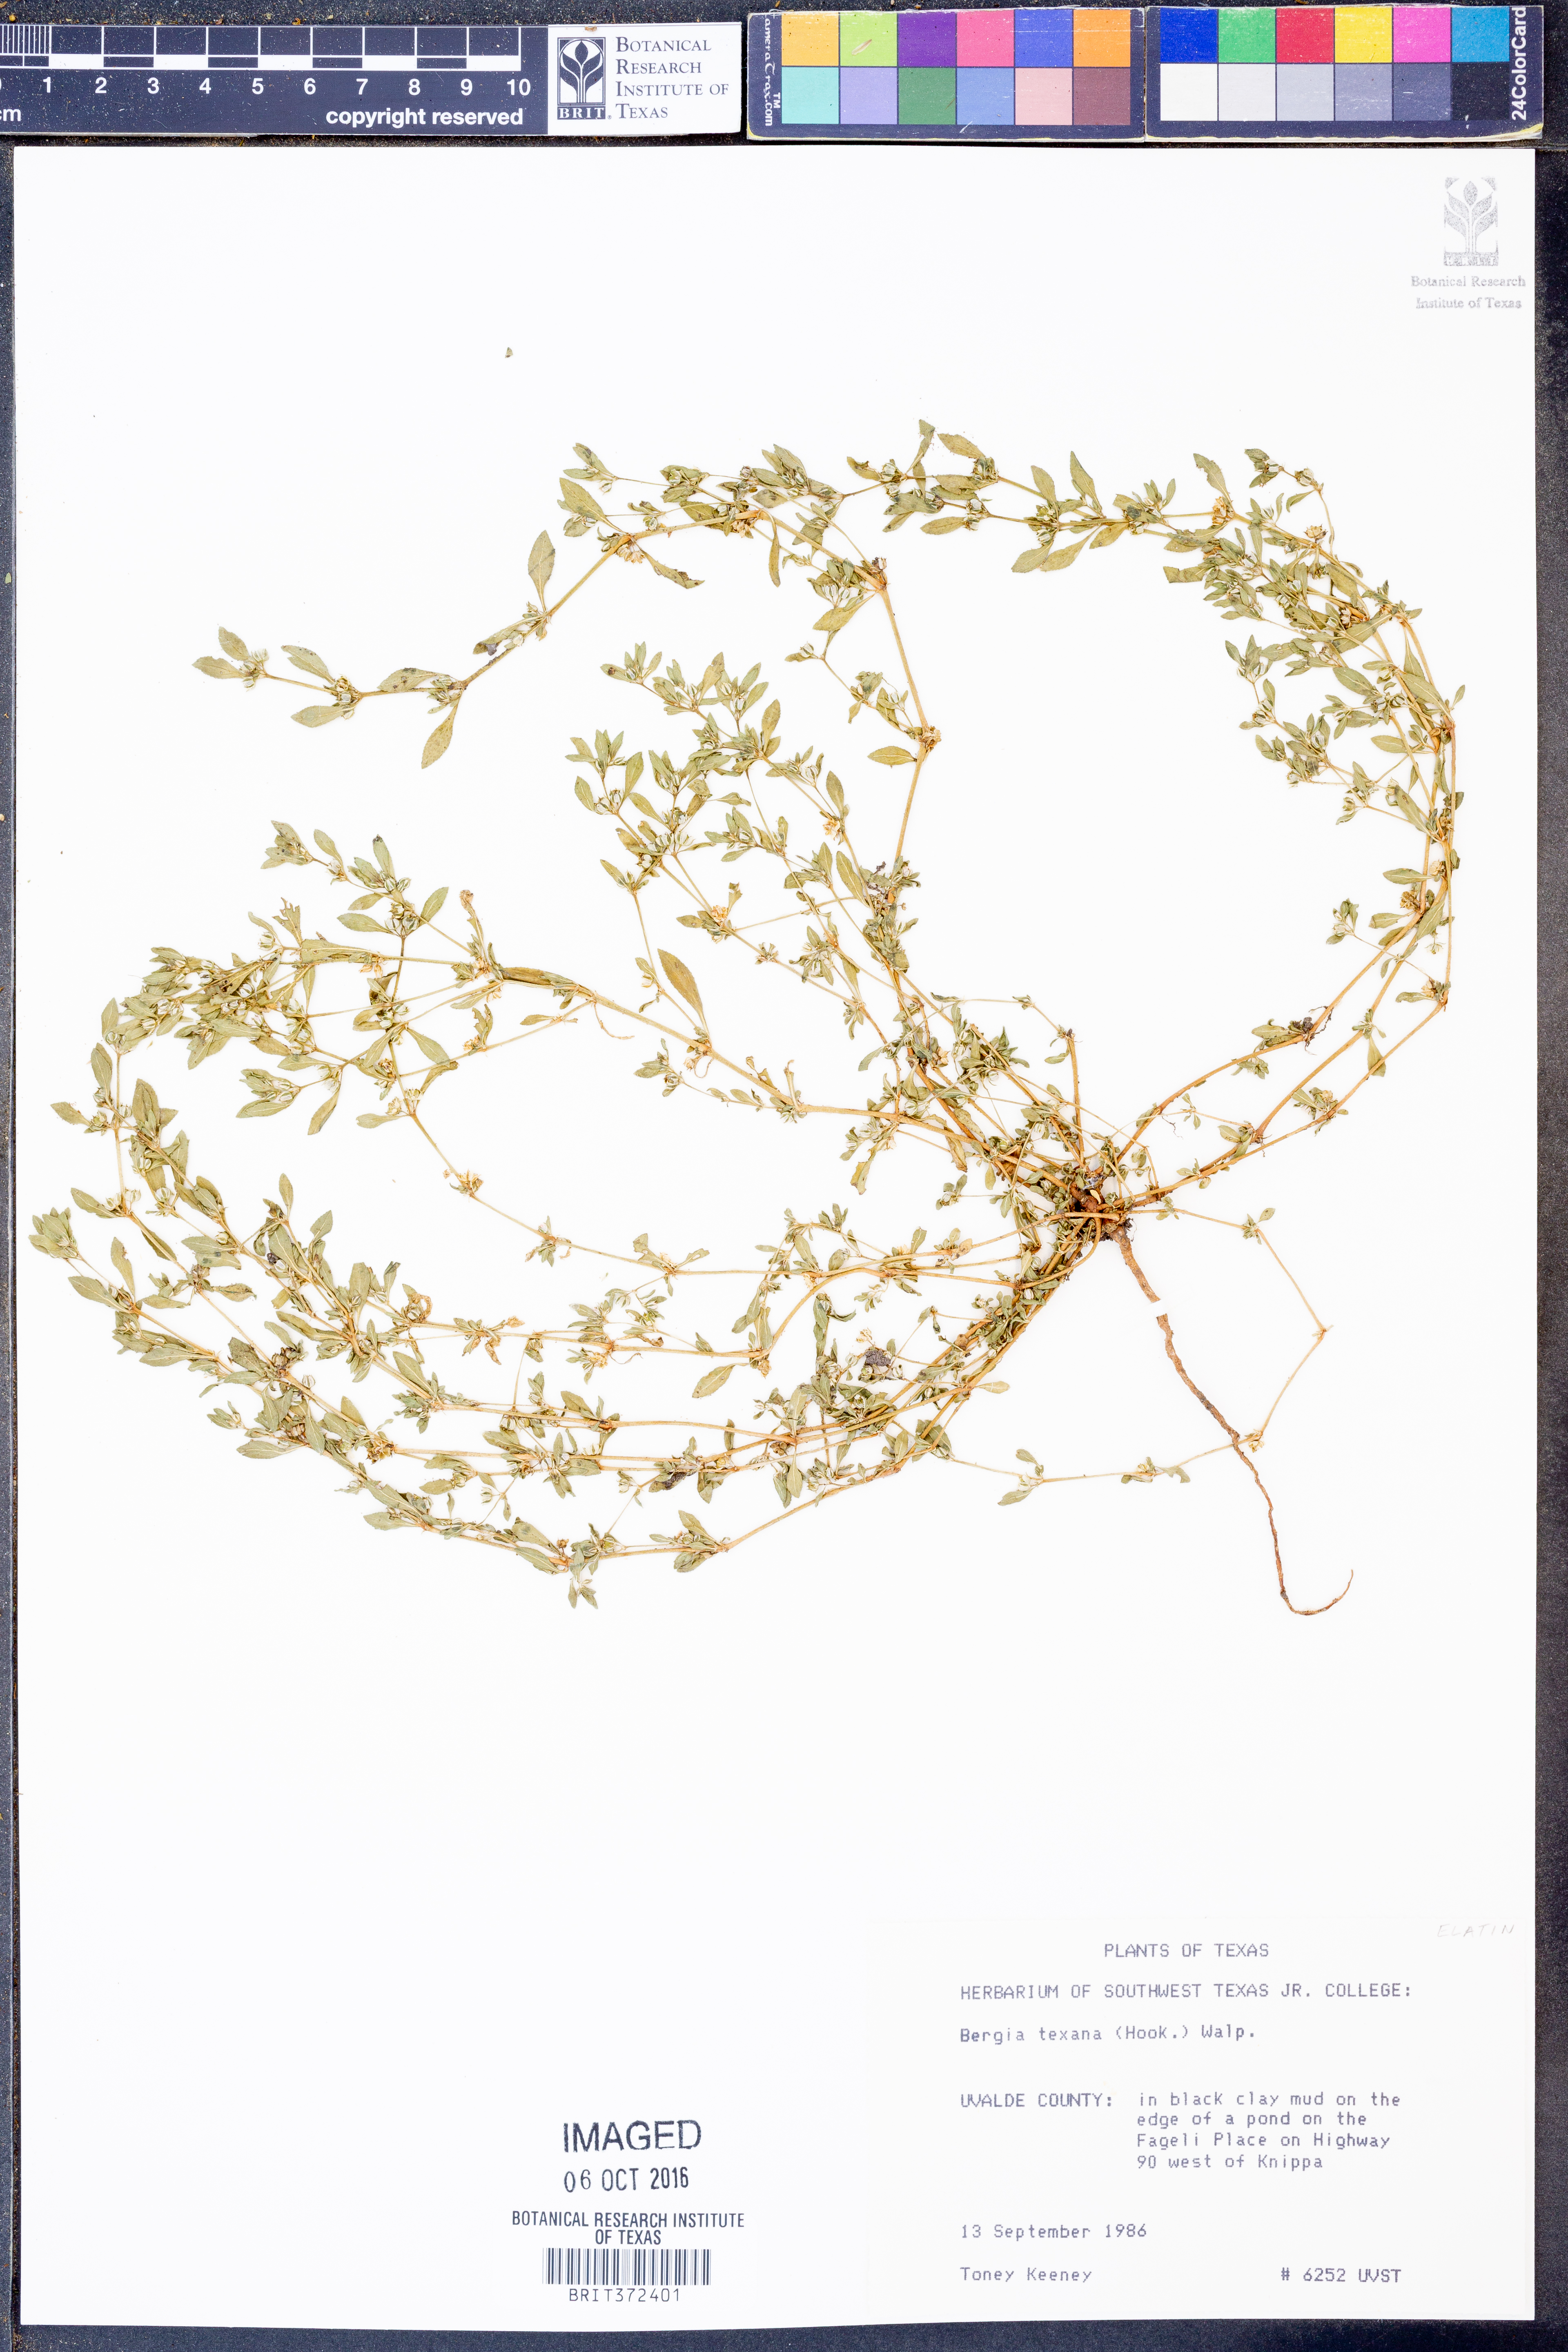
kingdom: Plantae
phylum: Tracheophyta
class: Magnoliopsida
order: Malpighiales
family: Elatinaceae
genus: Bergia
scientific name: Bergia texana
